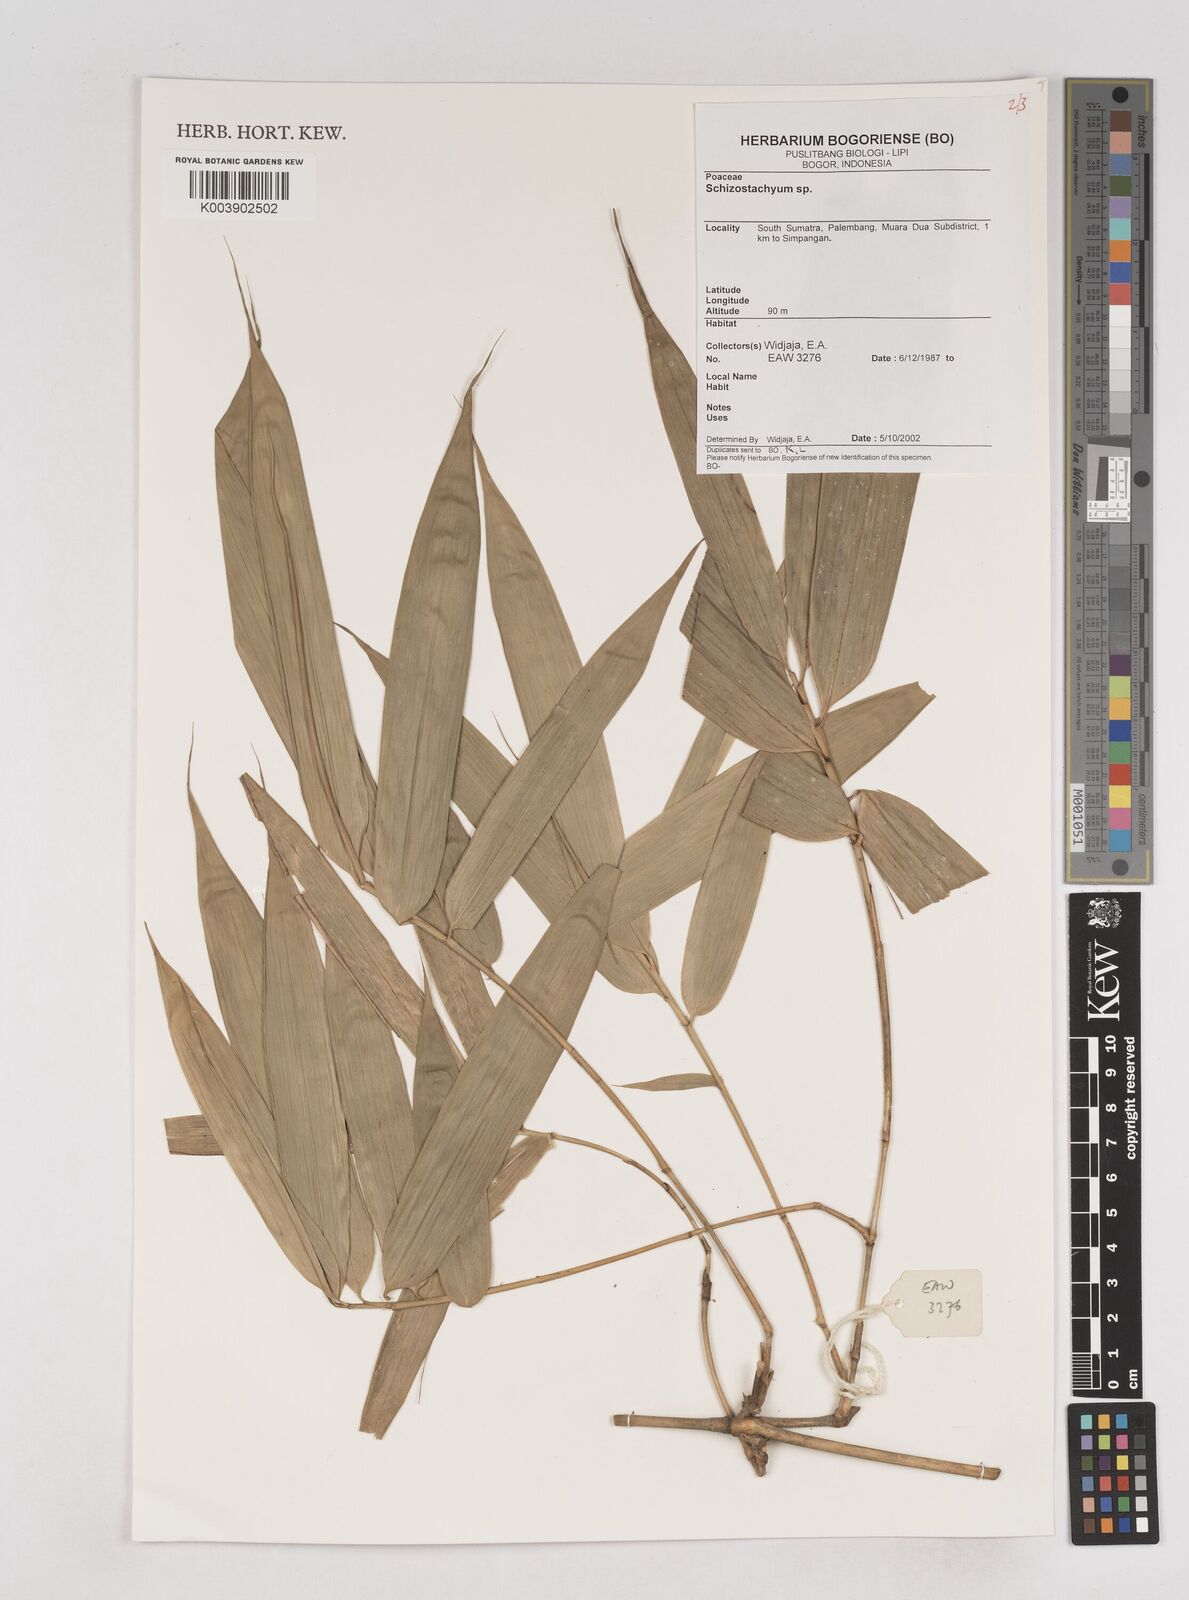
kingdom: Plantae
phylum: Tracheophyta
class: Liliopsida
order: Poales
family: Poaceae
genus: Schizostachyum
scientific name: Schizostachyum
